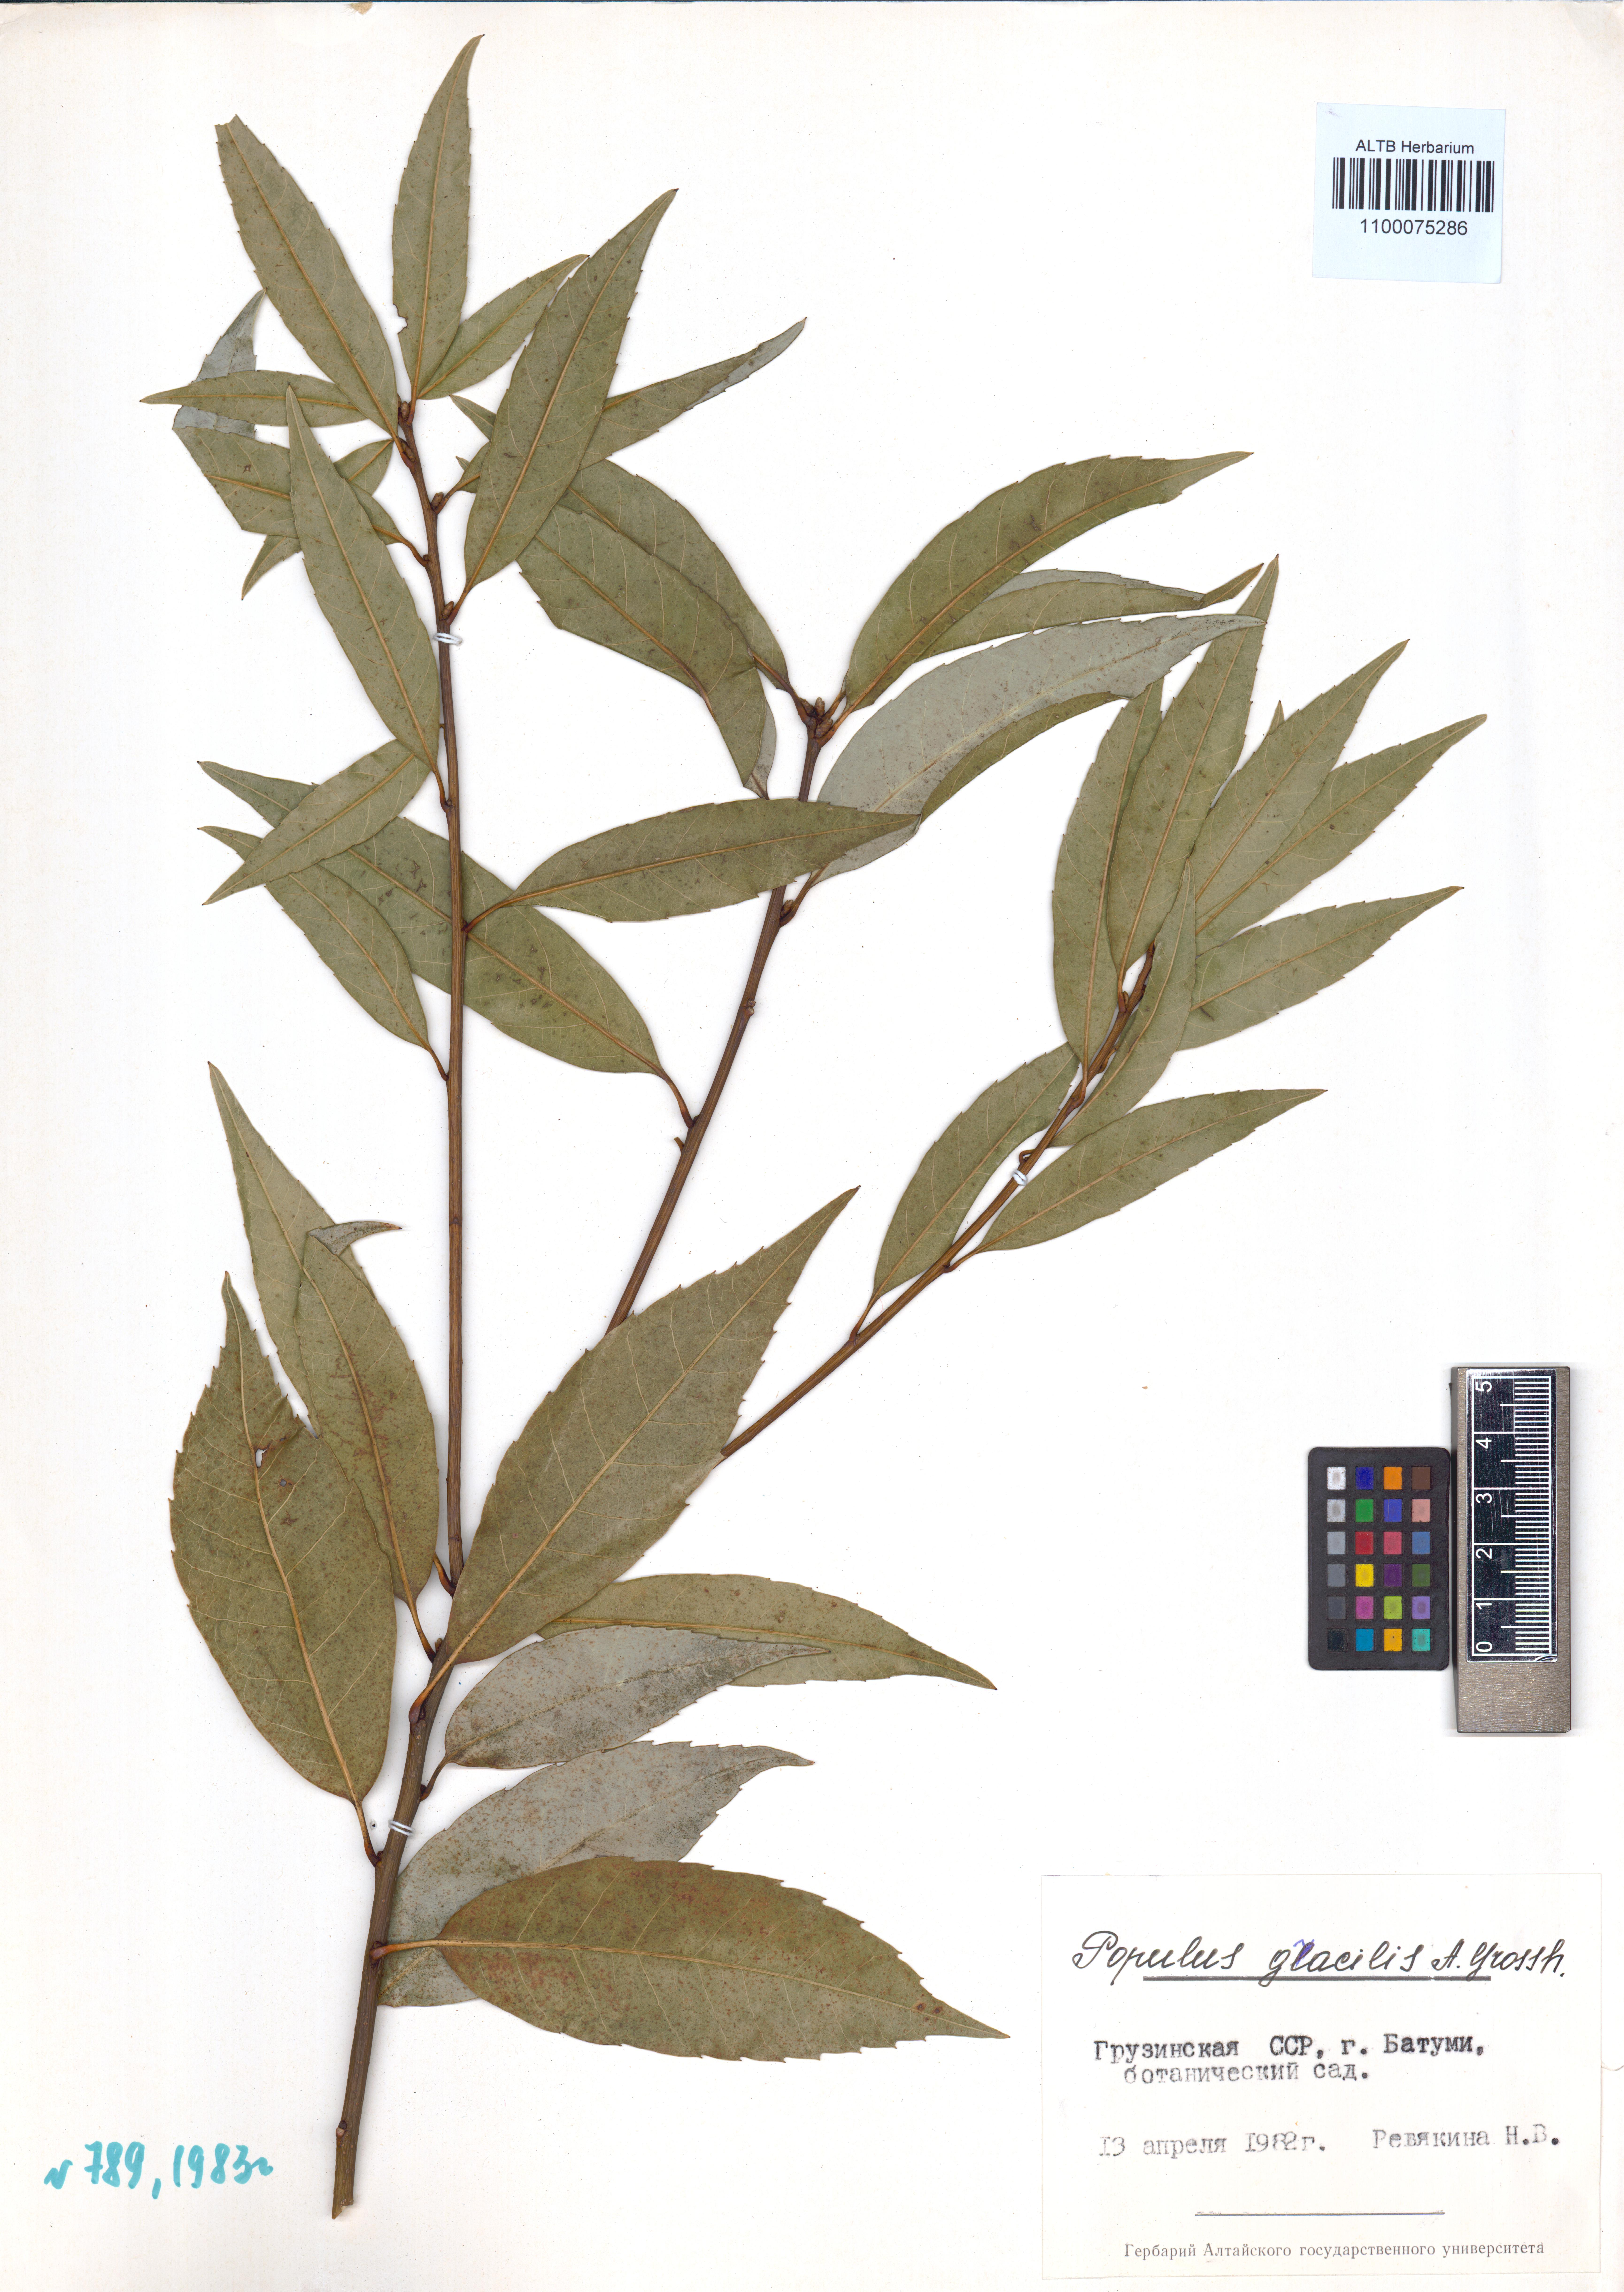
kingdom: Plantae
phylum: Tracheophyta
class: Magnoliopsida
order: Malpighiales
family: Salicaceae
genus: Populus
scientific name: Populus nigra
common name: Black poplar
